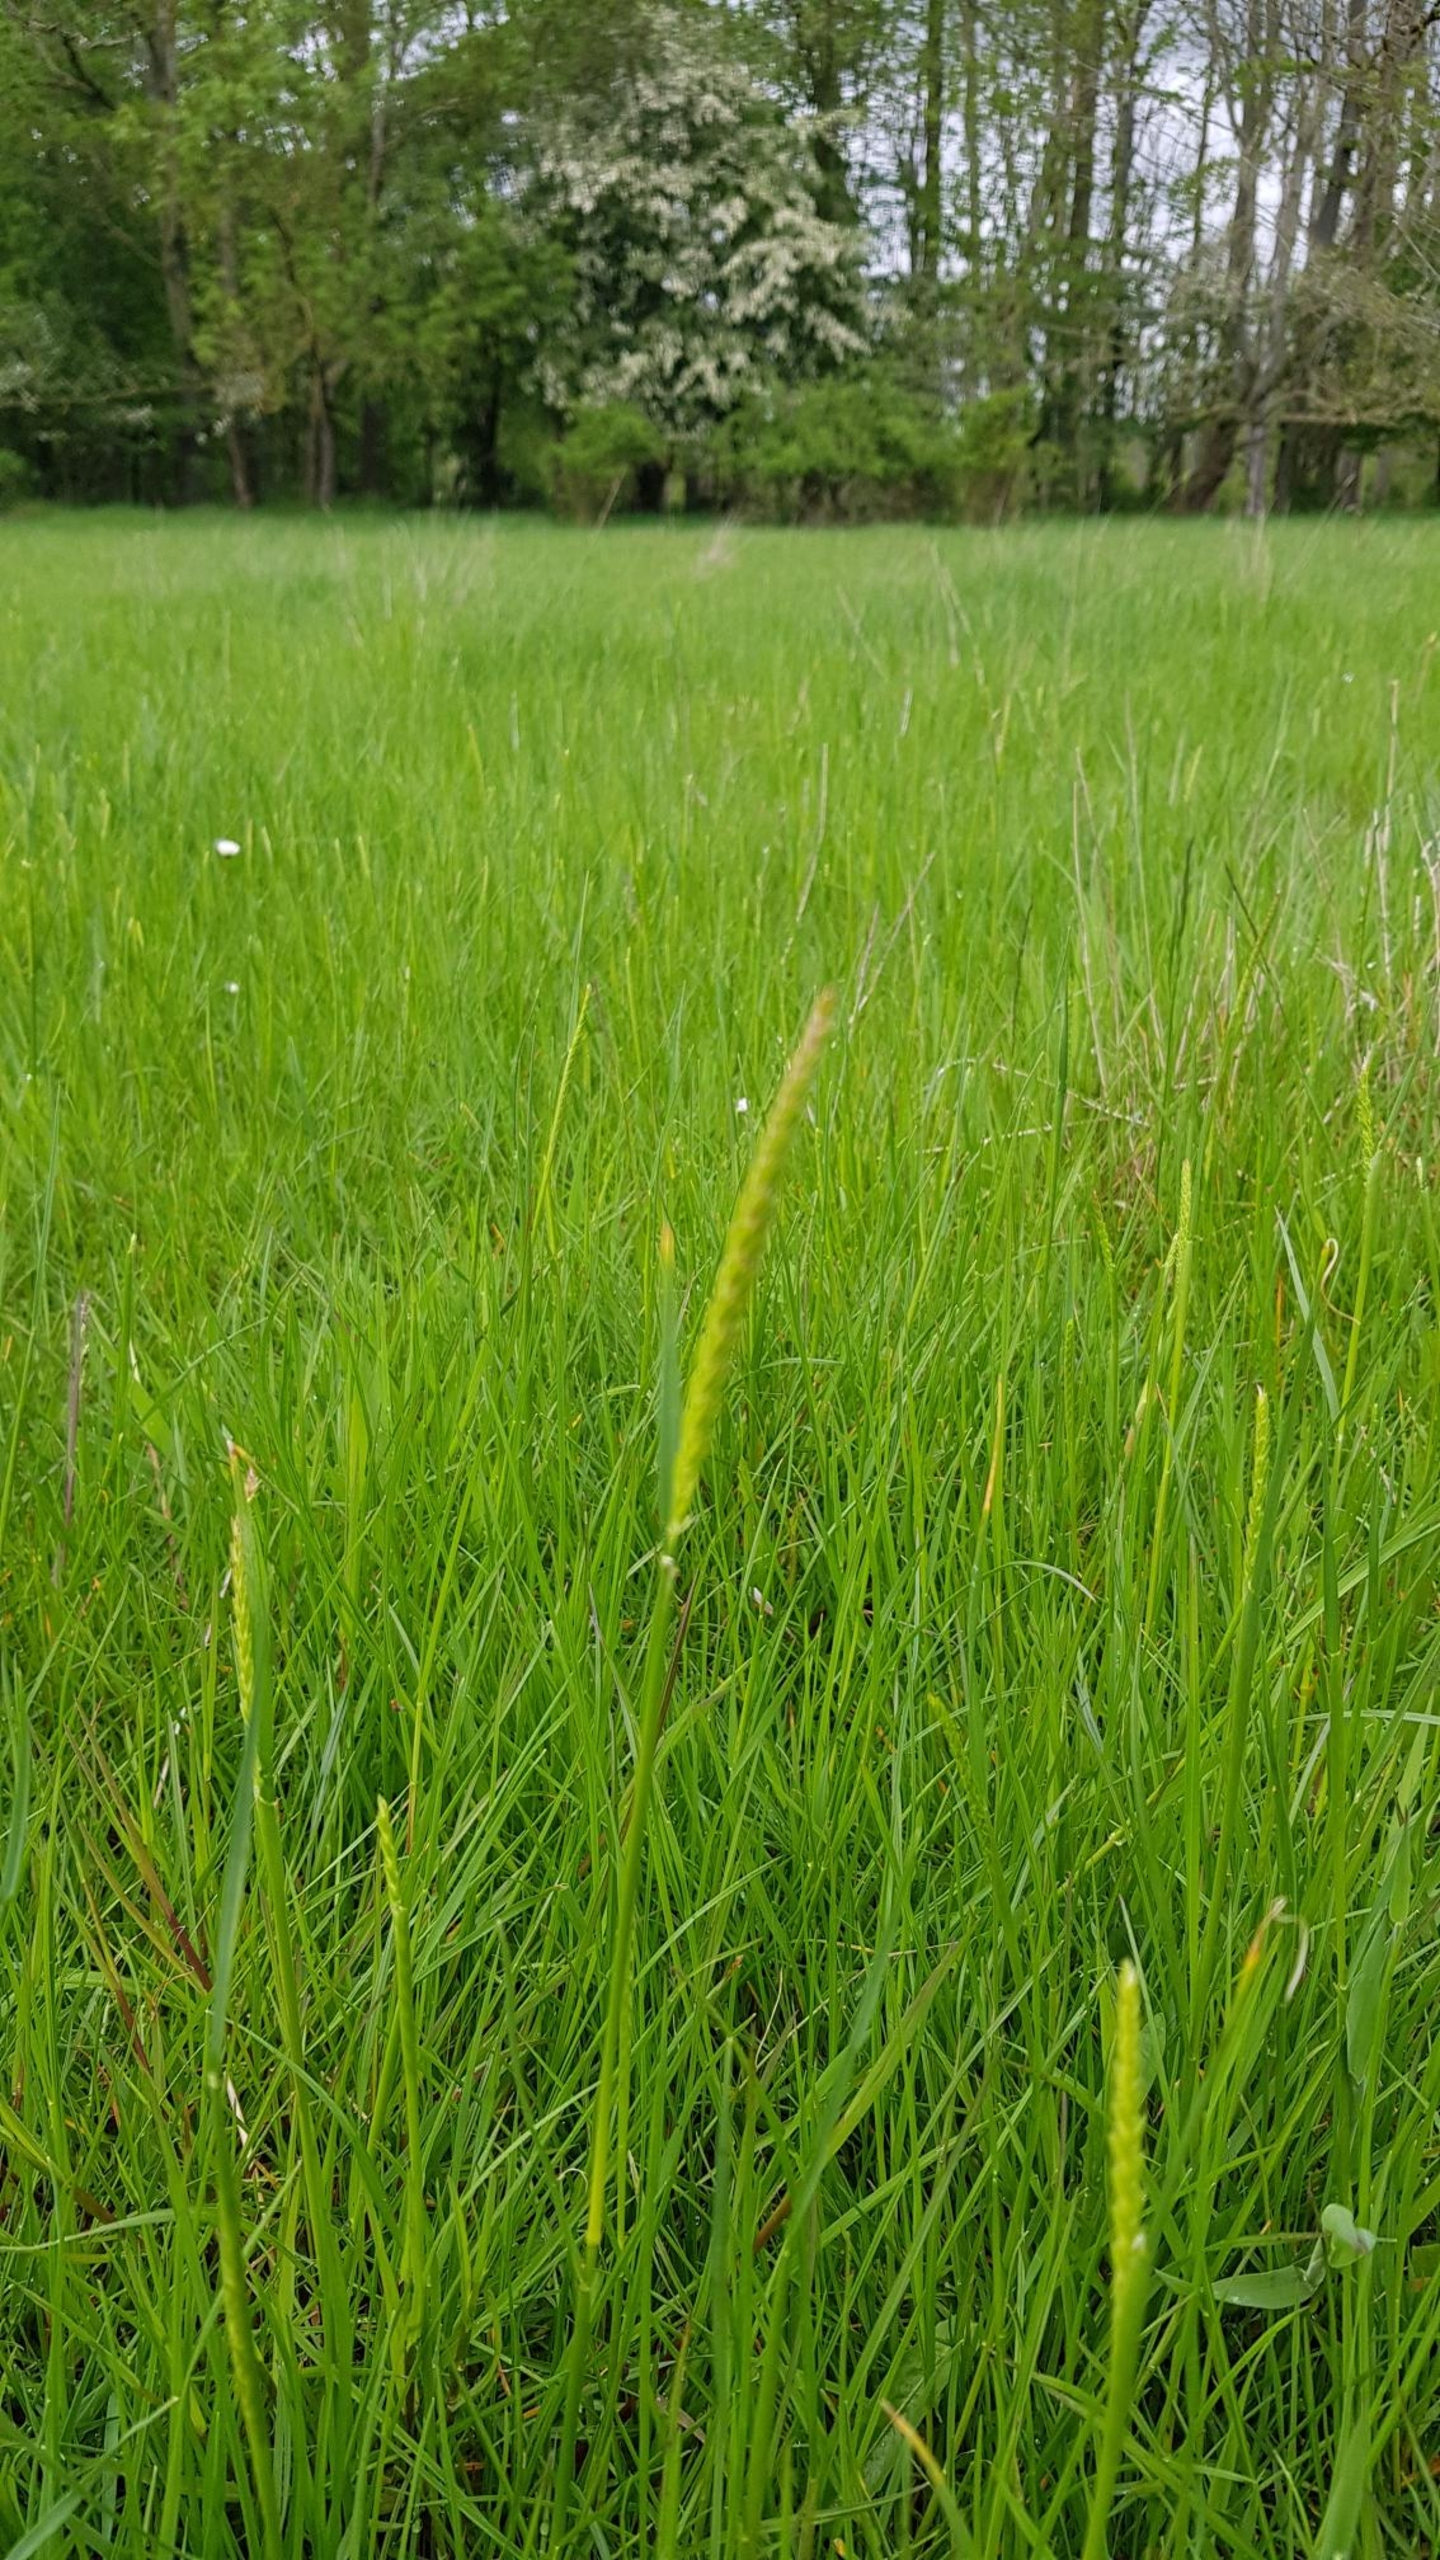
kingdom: Plantae
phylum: Tracheophyta
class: Liliopsida
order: Poales
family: Poaceae
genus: Cynosurus
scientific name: Cynosurus cristatus
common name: Kamgræs
